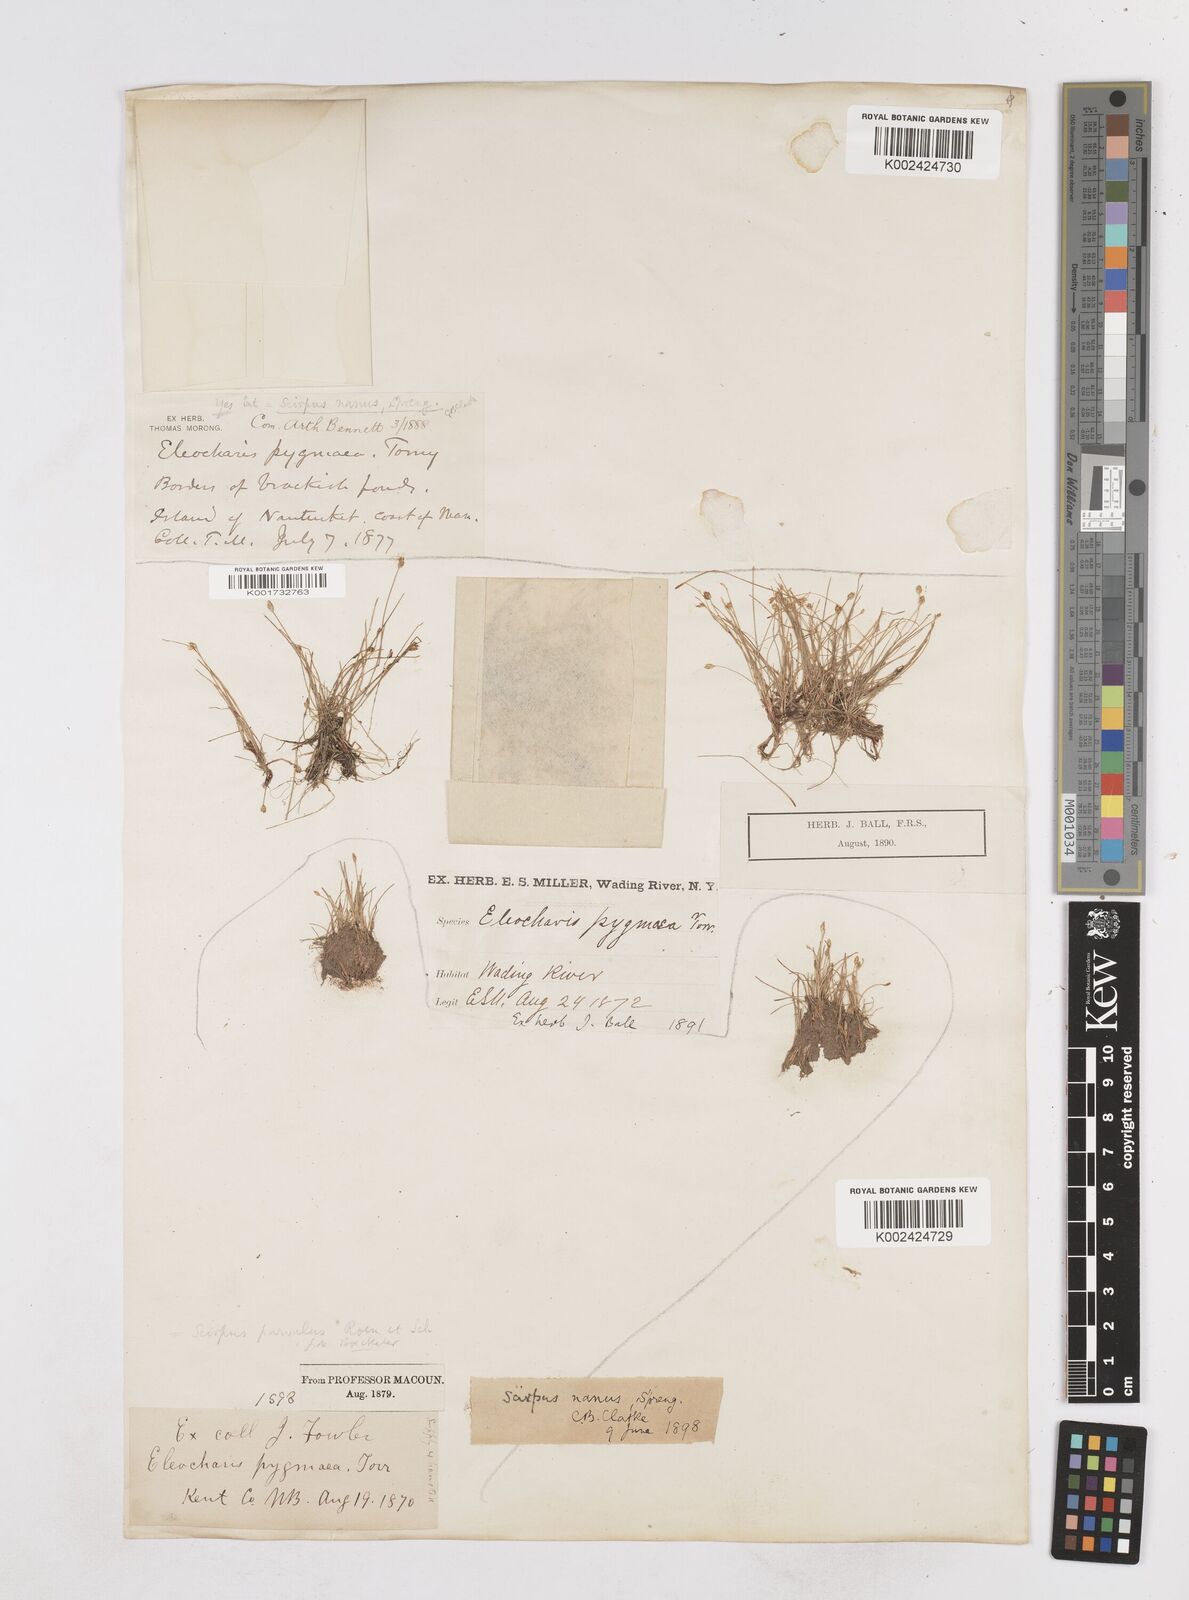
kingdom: Plantae
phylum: Tracheophyta
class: Liliopsida
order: Poales
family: Cyperaceae
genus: Eleocharis
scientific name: Eleocharis parvula
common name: Dwarf spike-rush
